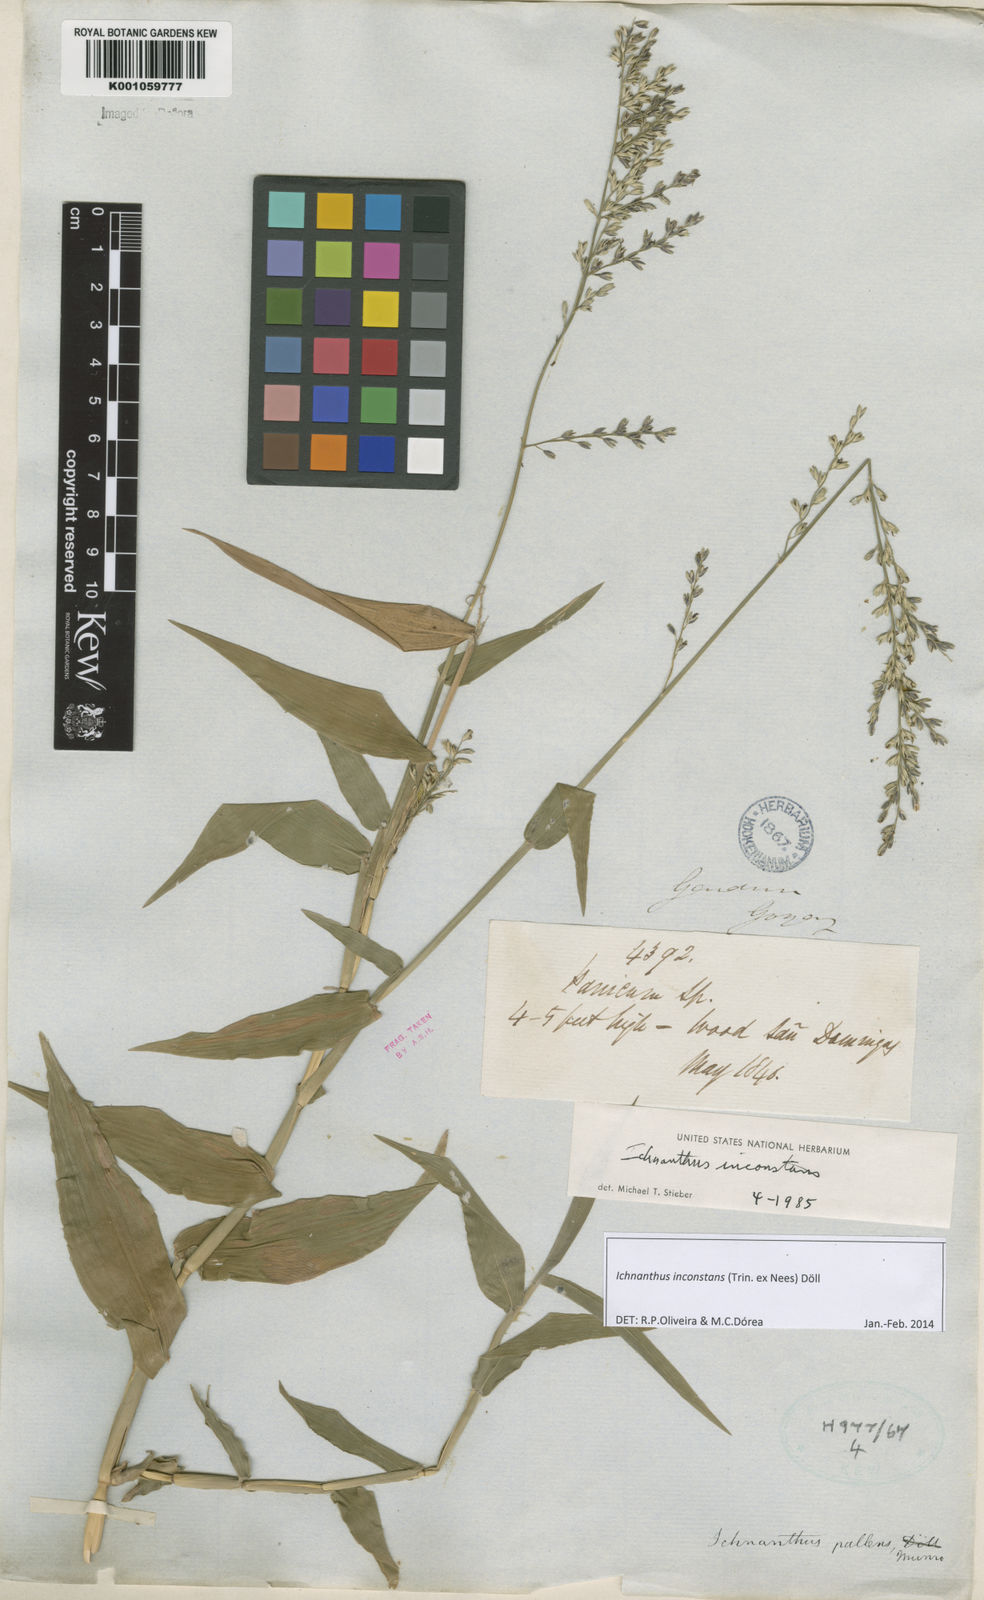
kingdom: Plantae
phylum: Tracheophyta
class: Liliopsida
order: Poales
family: Poaceae
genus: Ichnanthus
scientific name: Ichnanthus
